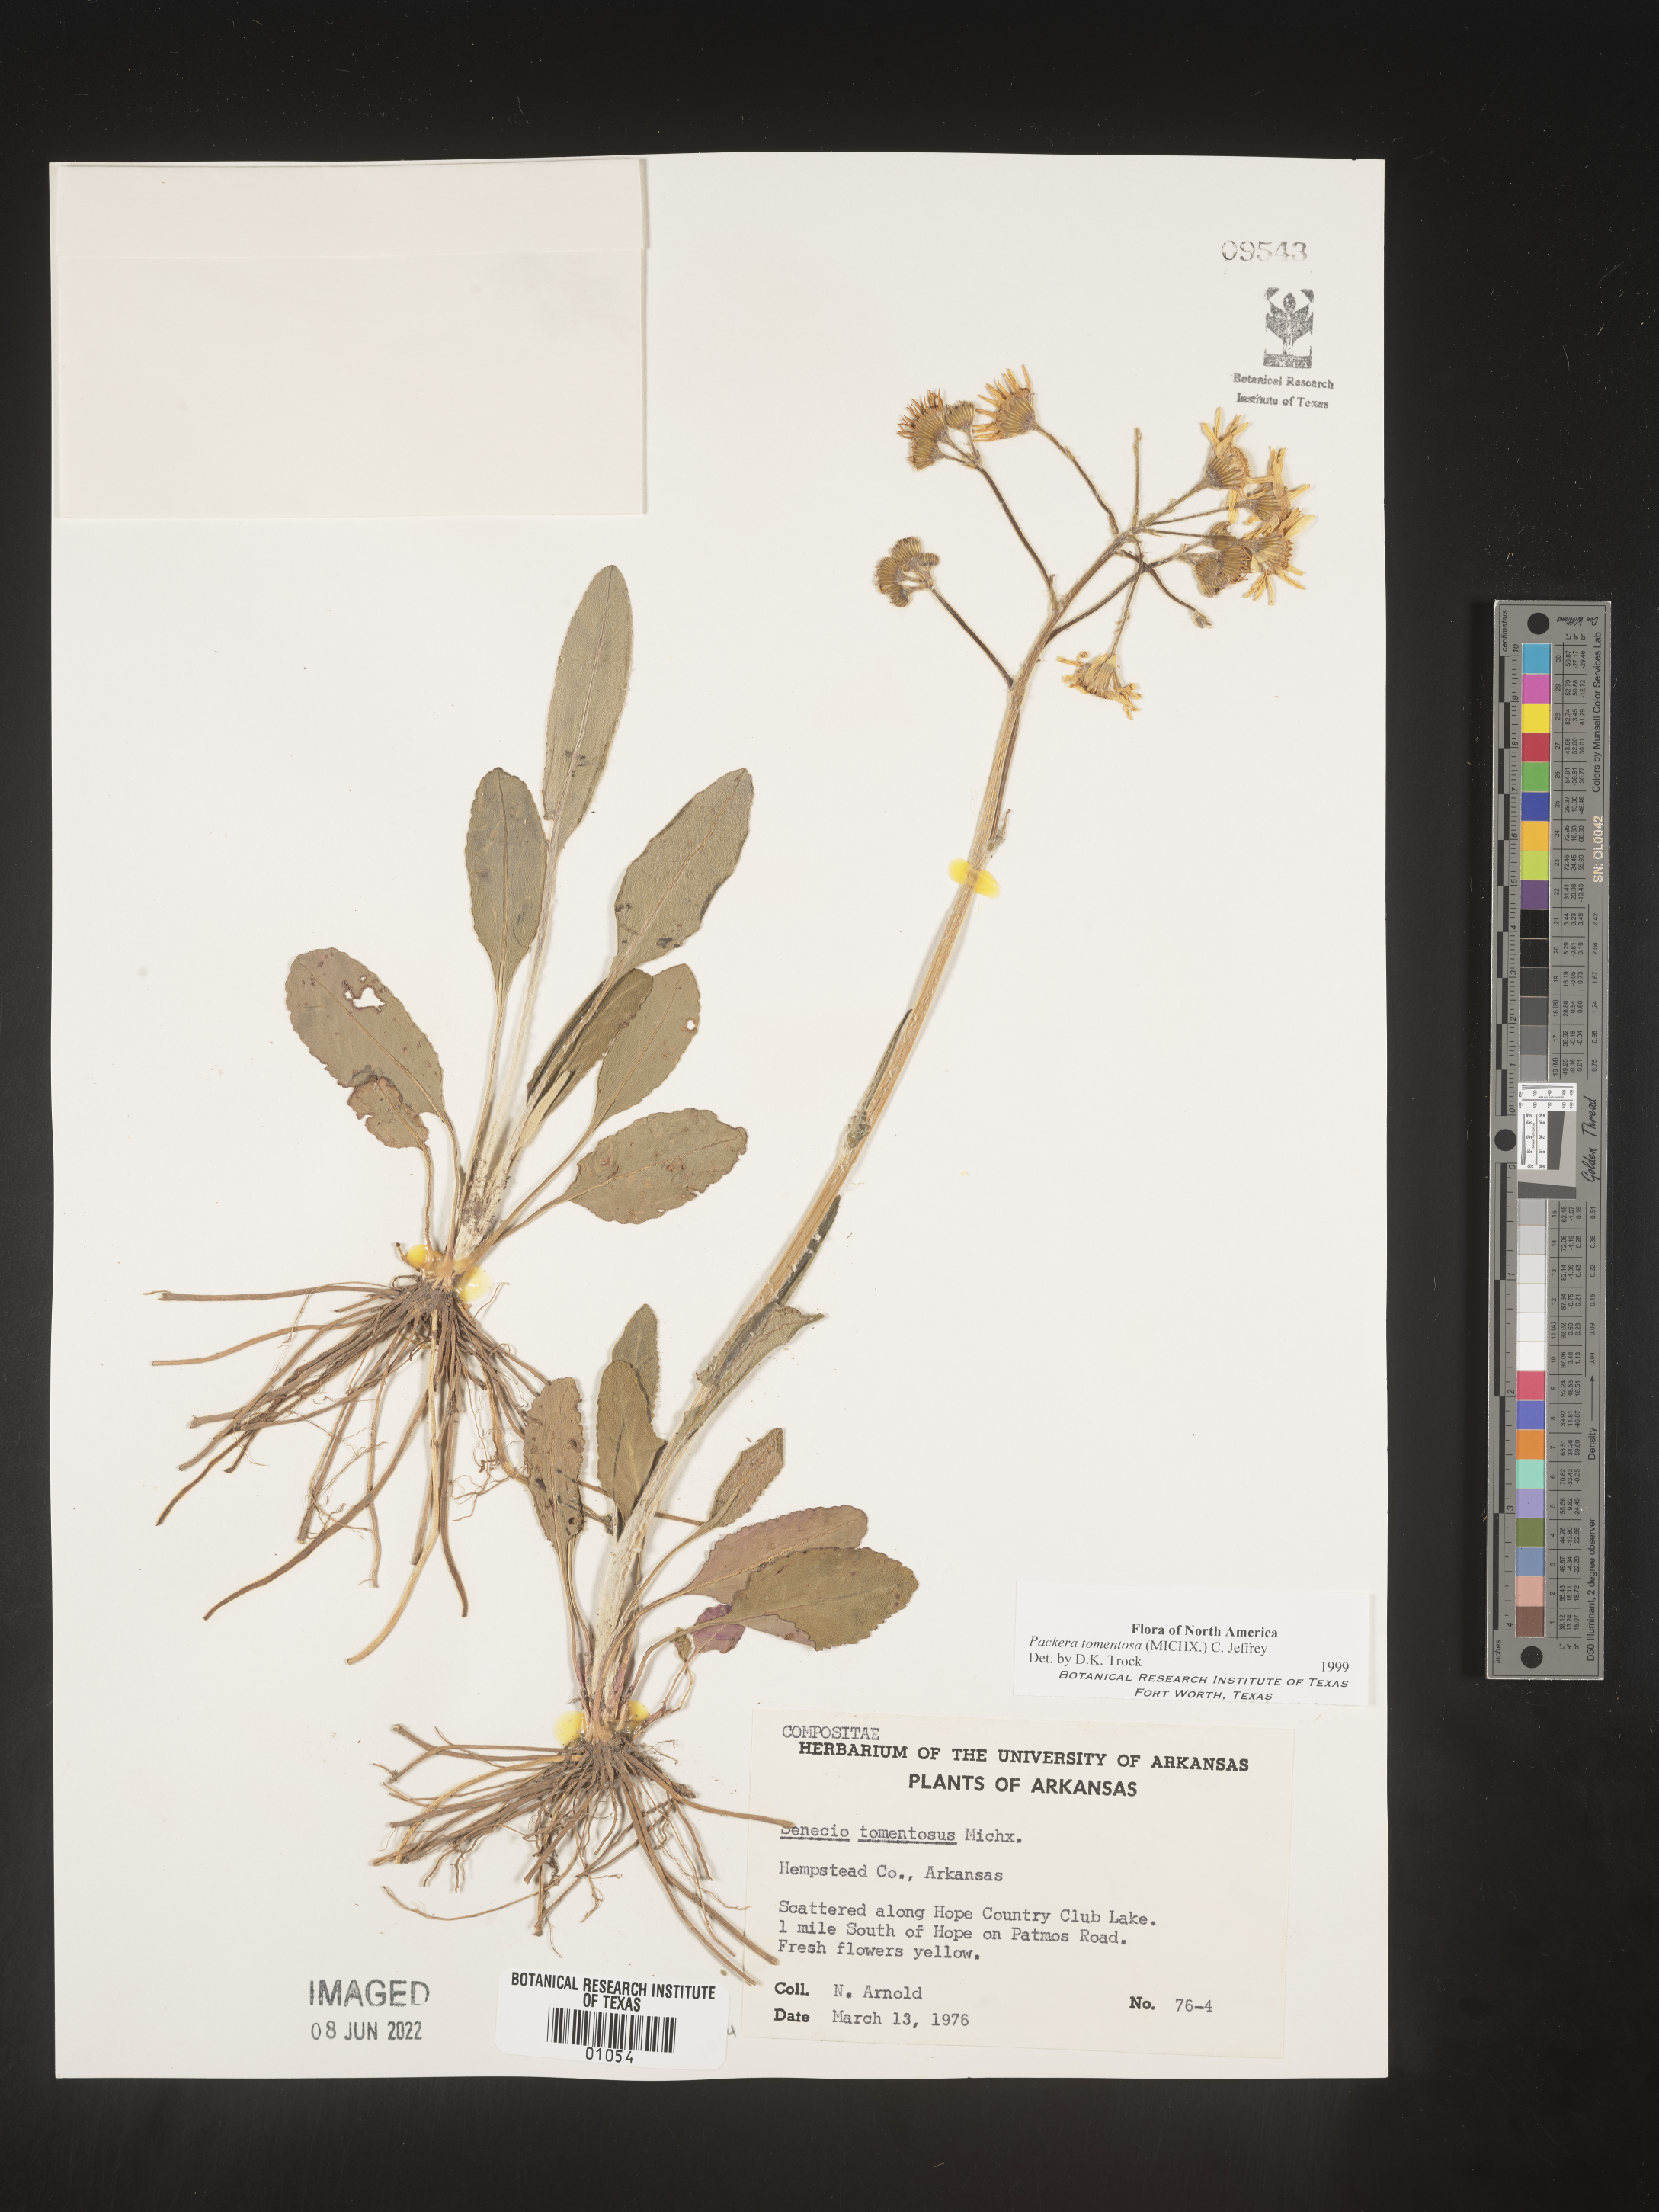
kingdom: Plantae
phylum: Tracheophyta
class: Magnoliopsida
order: Asterales
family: Asteraceae
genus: Packera
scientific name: Packera dubia
